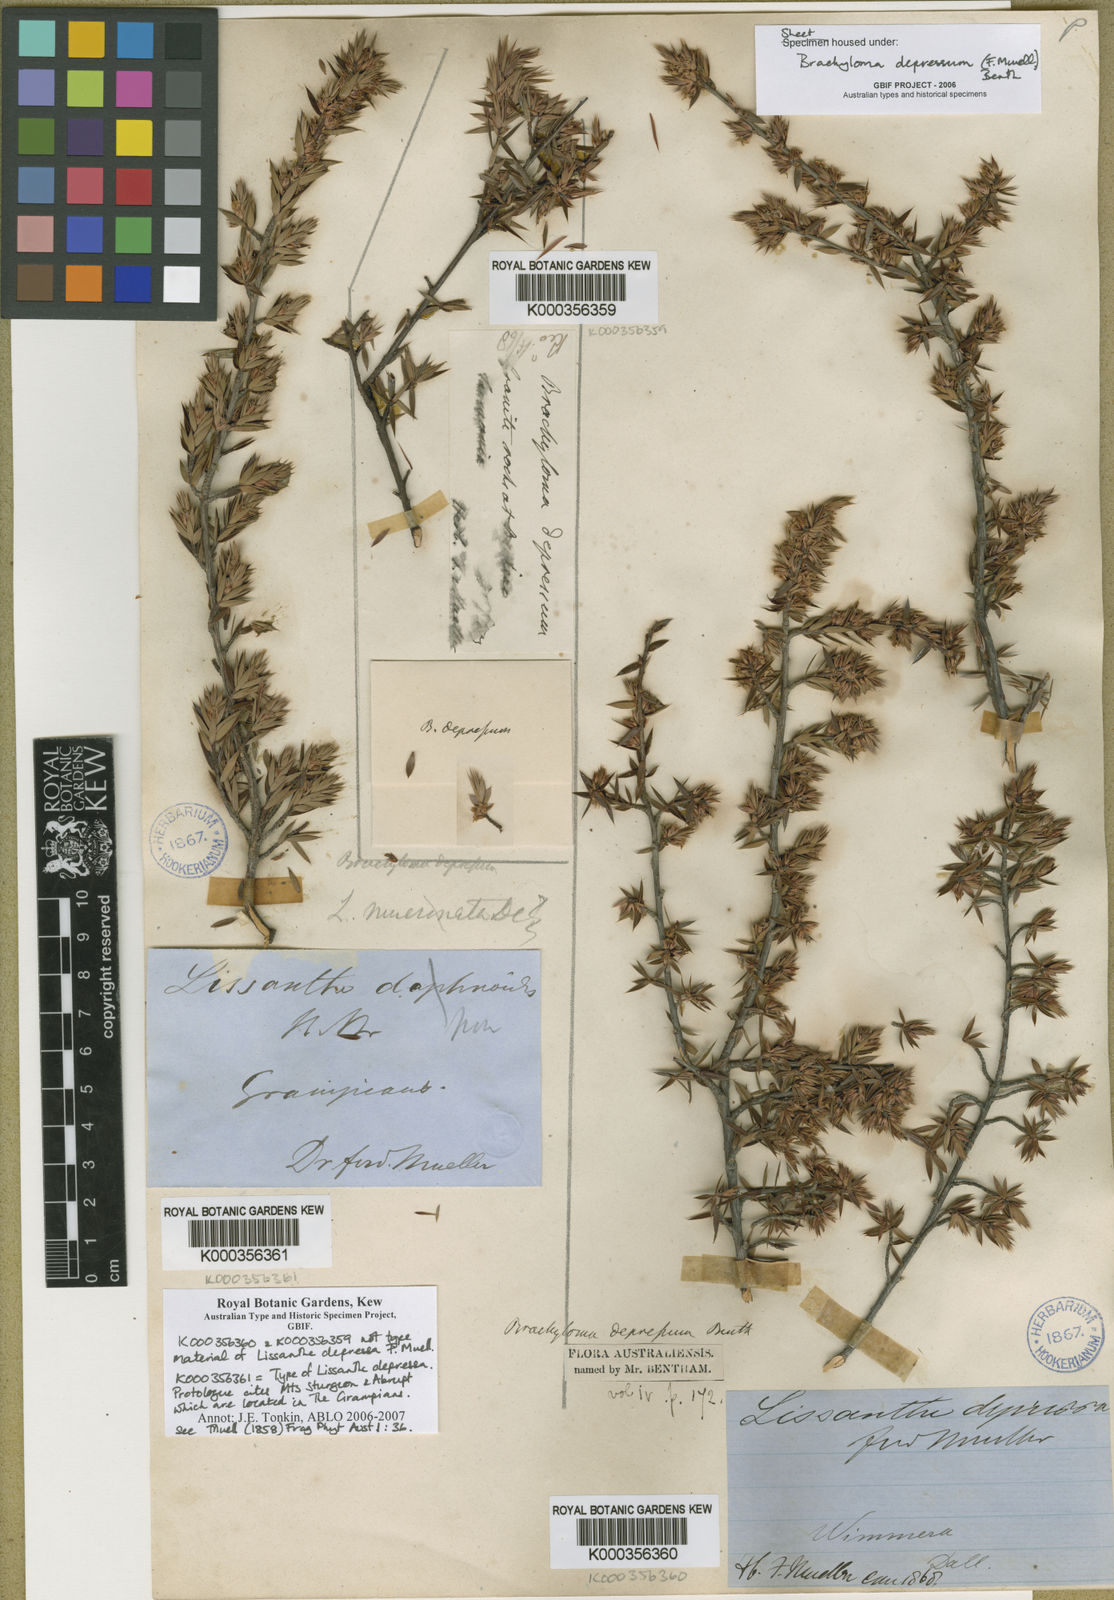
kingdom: Plantae
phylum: Tracheophyta
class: Magnoliopsida
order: Ericales
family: Ericaceae
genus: Brachyloma
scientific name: Brachyloma depressum
